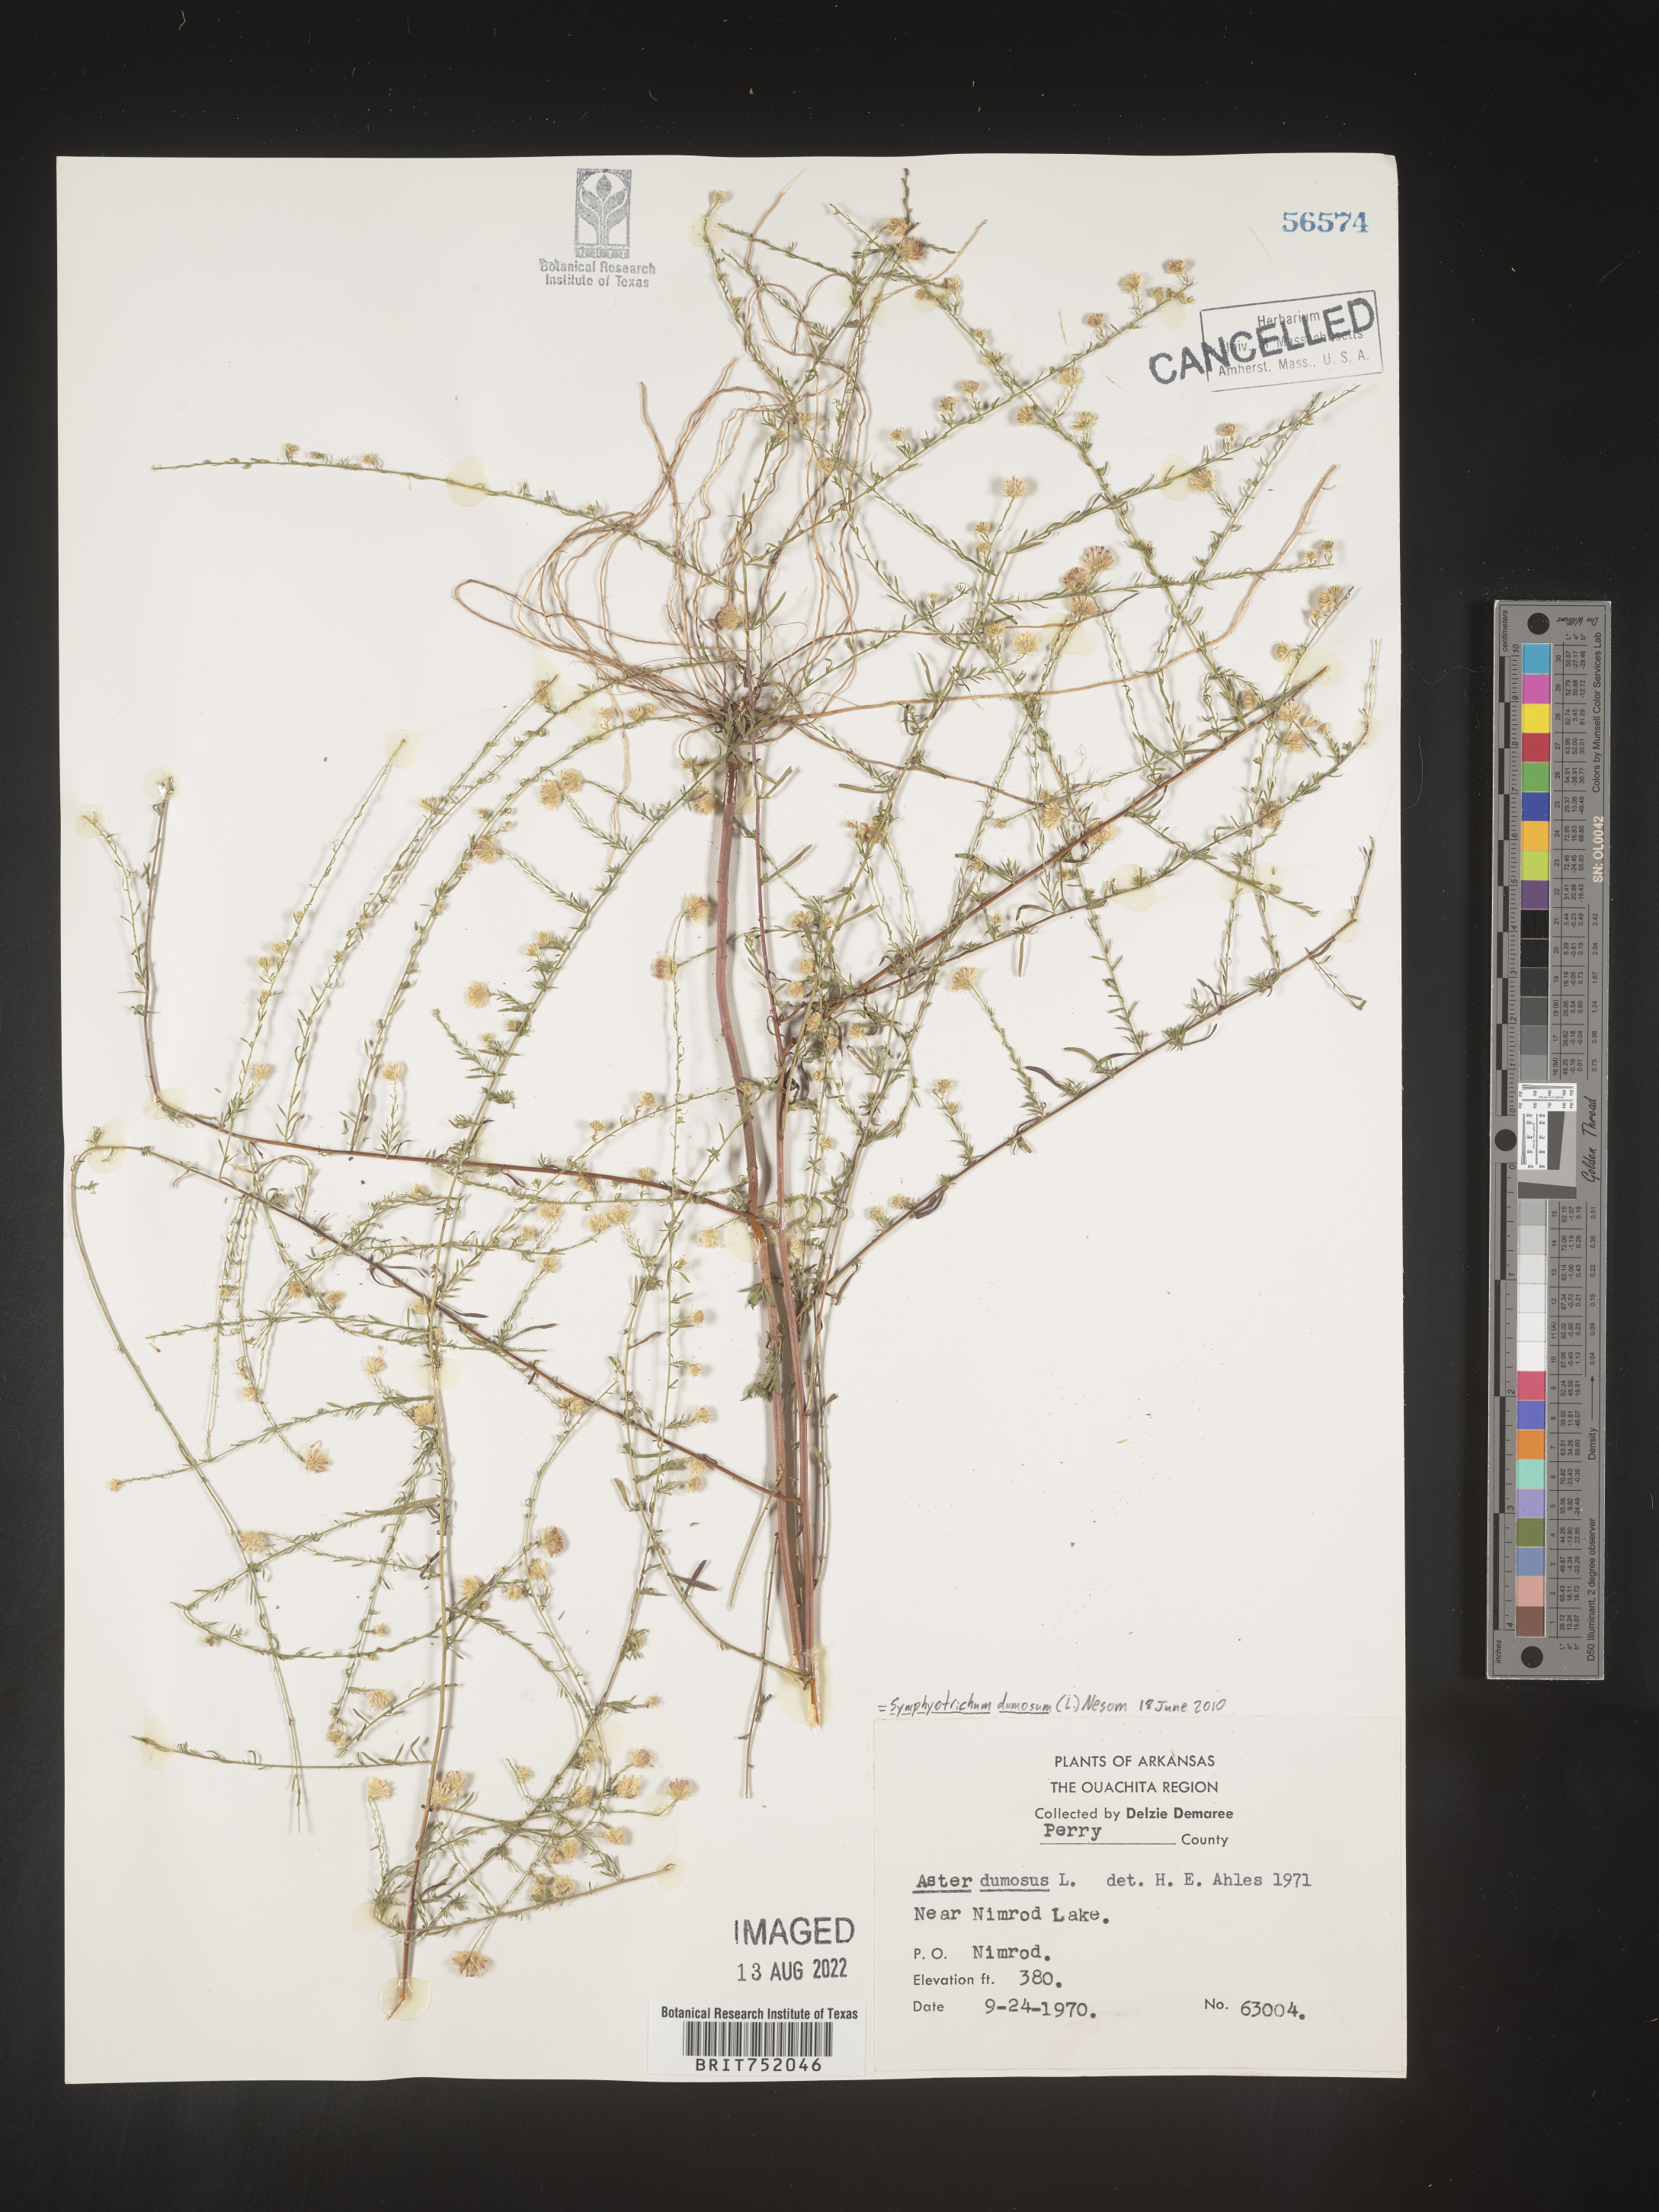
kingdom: Plantae
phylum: Tracheophyta
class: Magnoliopsida
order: Asterales
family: Asteraceae
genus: Symphyotrichum
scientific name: Symphyotrichum dumosum
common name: Bushy aster
